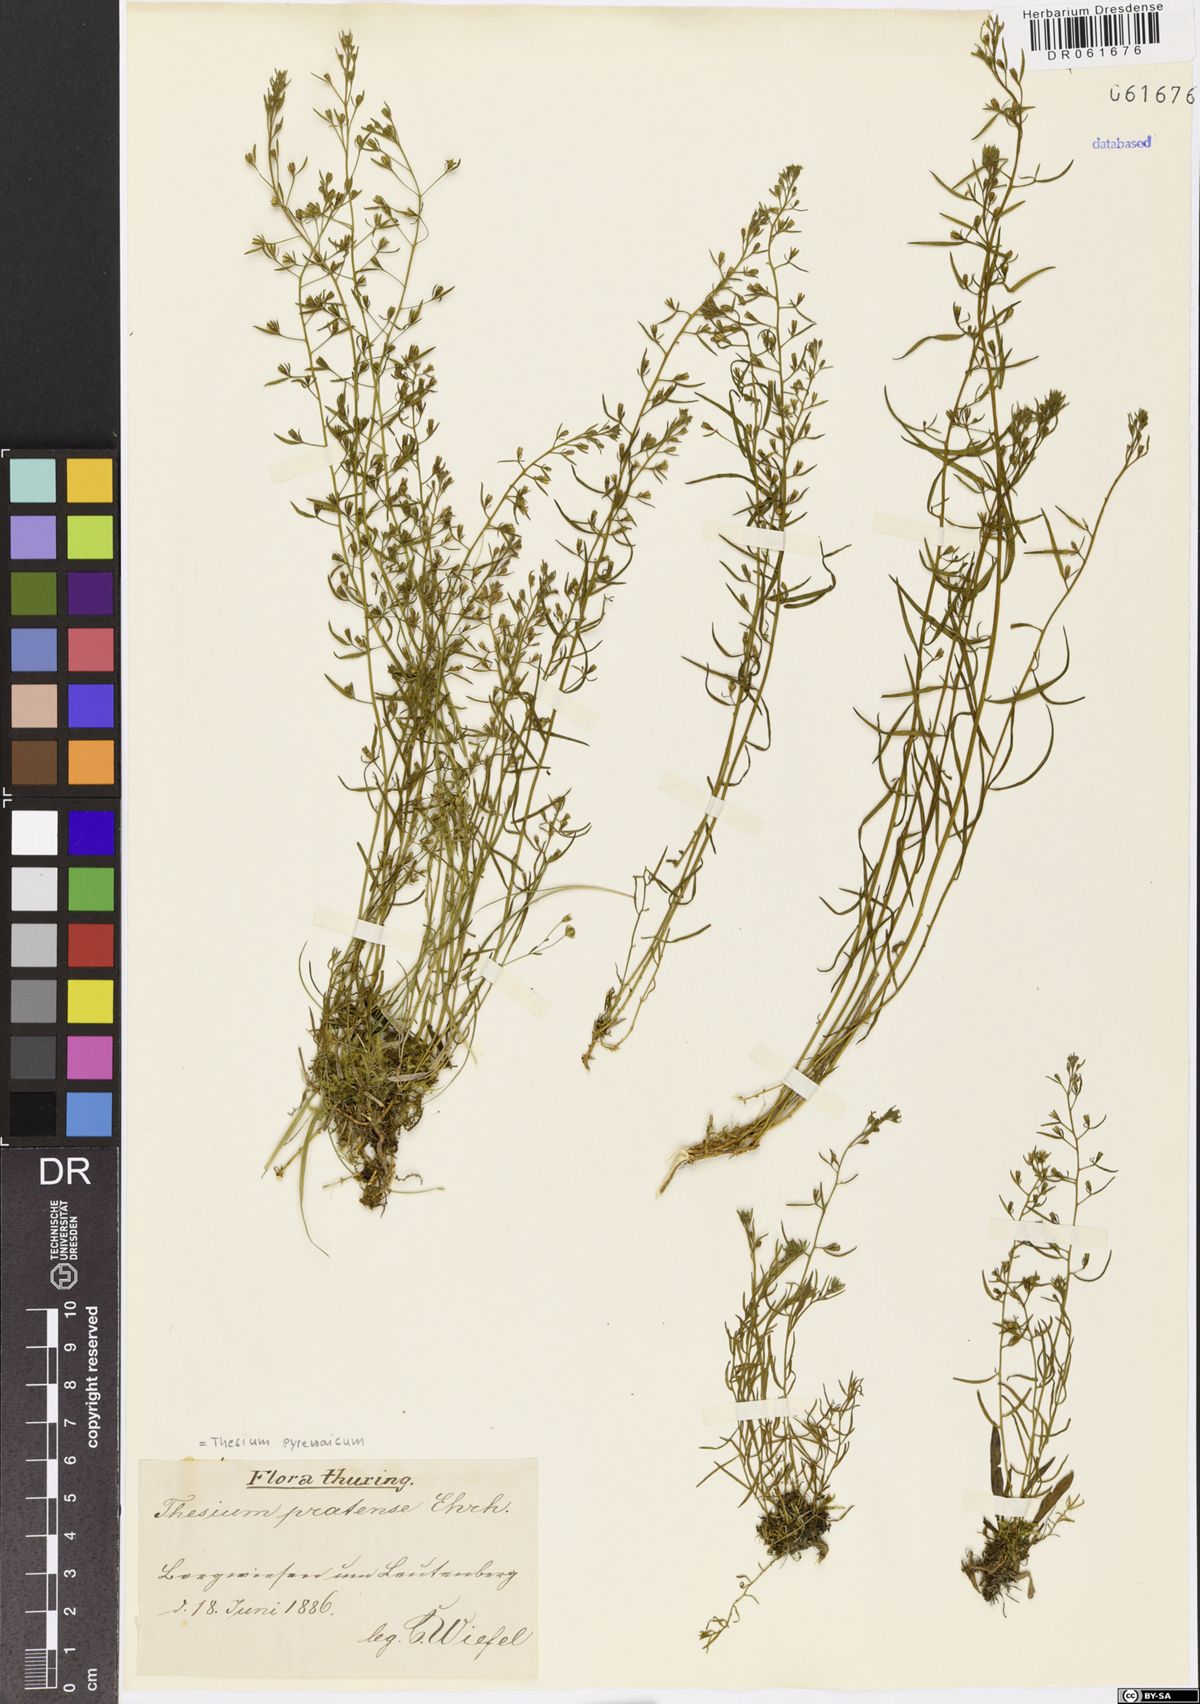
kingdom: Plantae
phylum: Tracheophyta
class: Magnoliopsida
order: Santalales
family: Thesiaceae
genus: Thesium
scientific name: Thesium pyrenaicum
